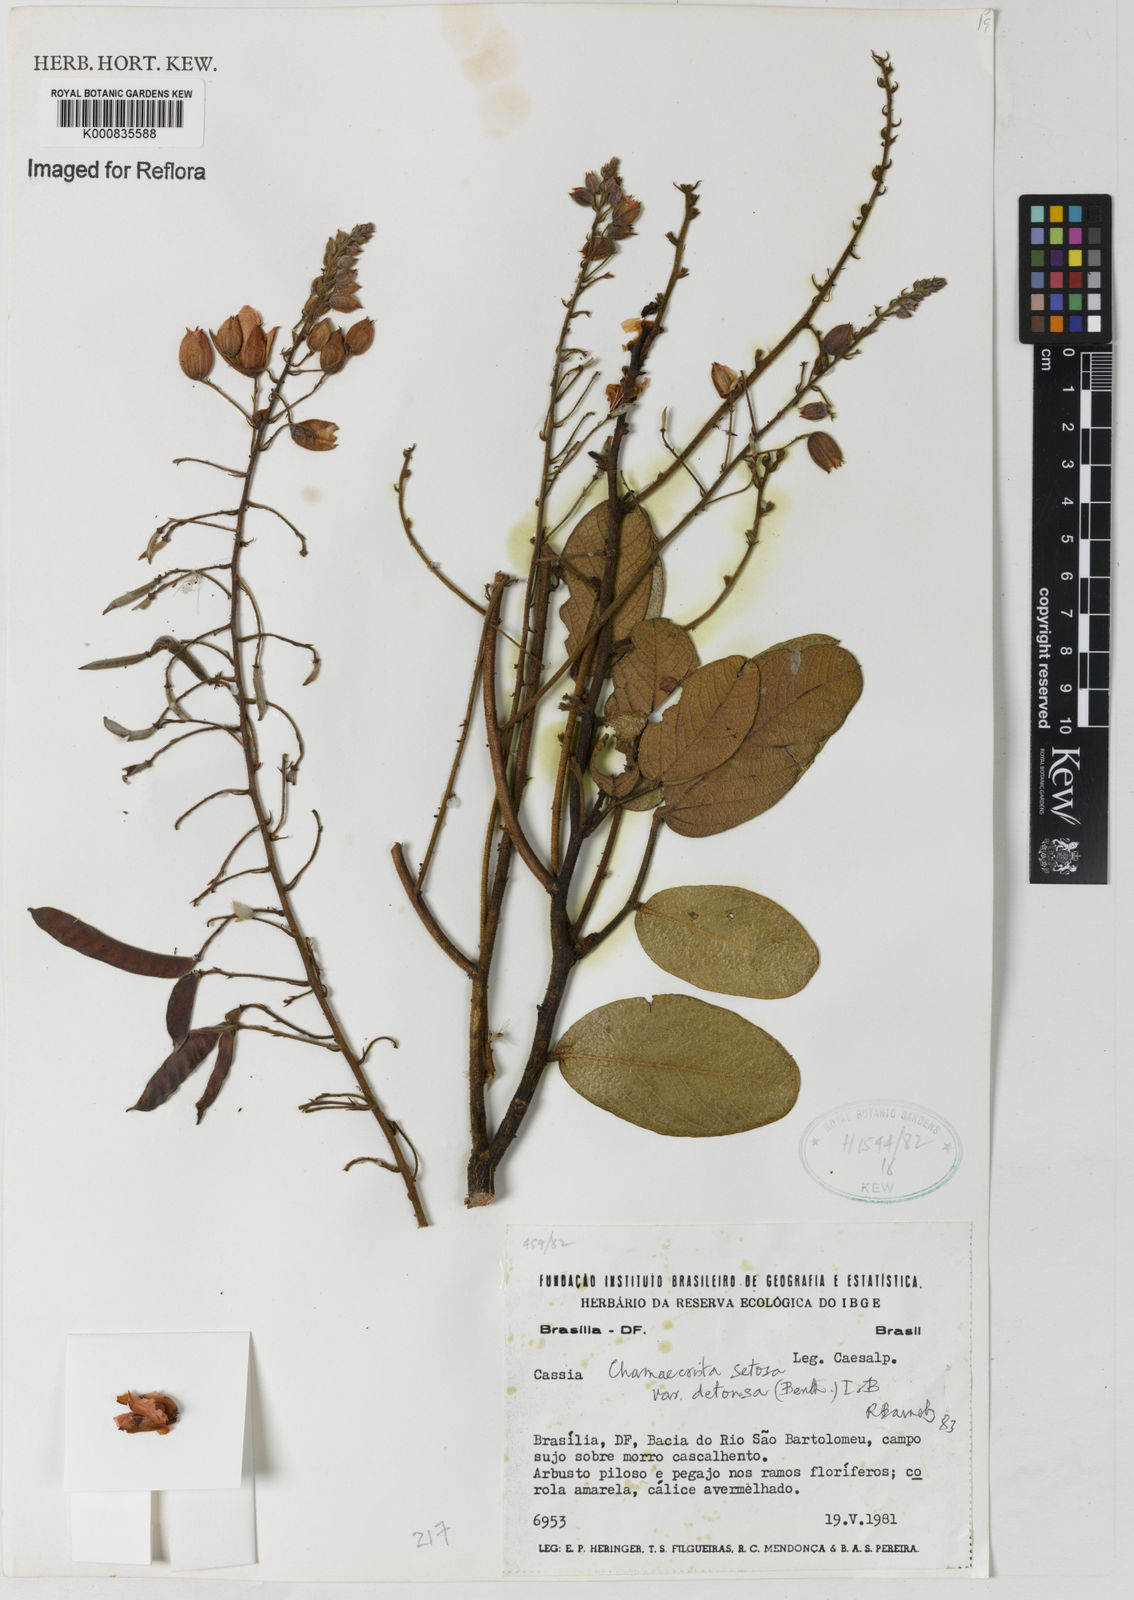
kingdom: Plantae
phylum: Tracheophyta
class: Magnoliopsida
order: Fabales
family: Fabaceae
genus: Chamaecrista
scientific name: Chamaecrista setosa
